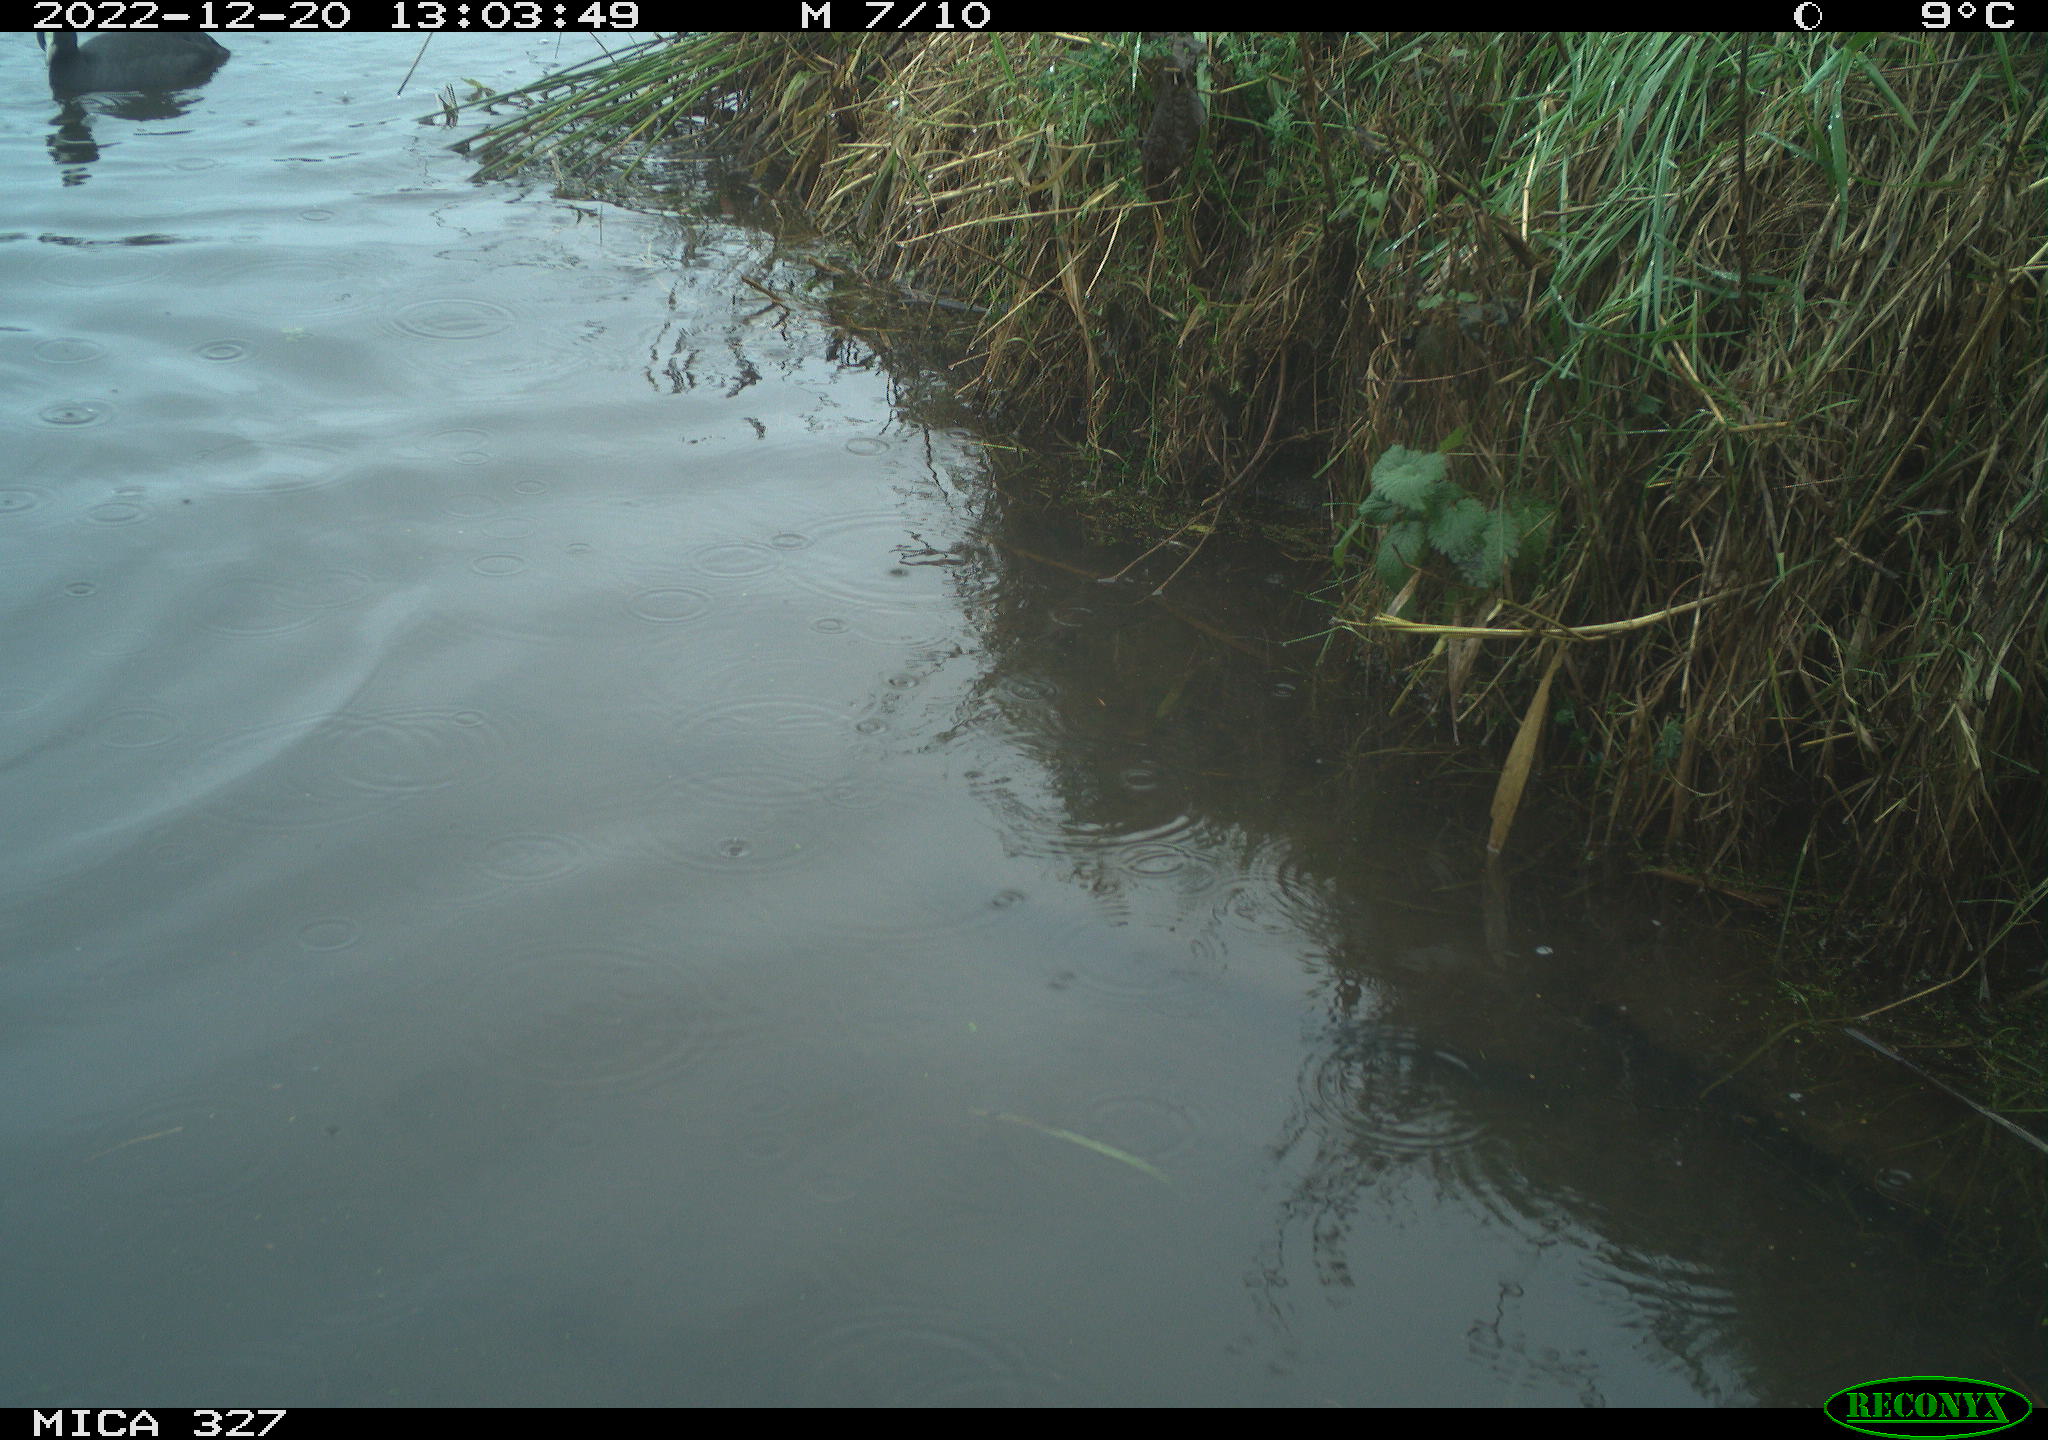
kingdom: Animalia
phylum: Chordata
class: Aves
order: Anseriformes
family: Anatidae
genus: Anas
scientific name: Anas
